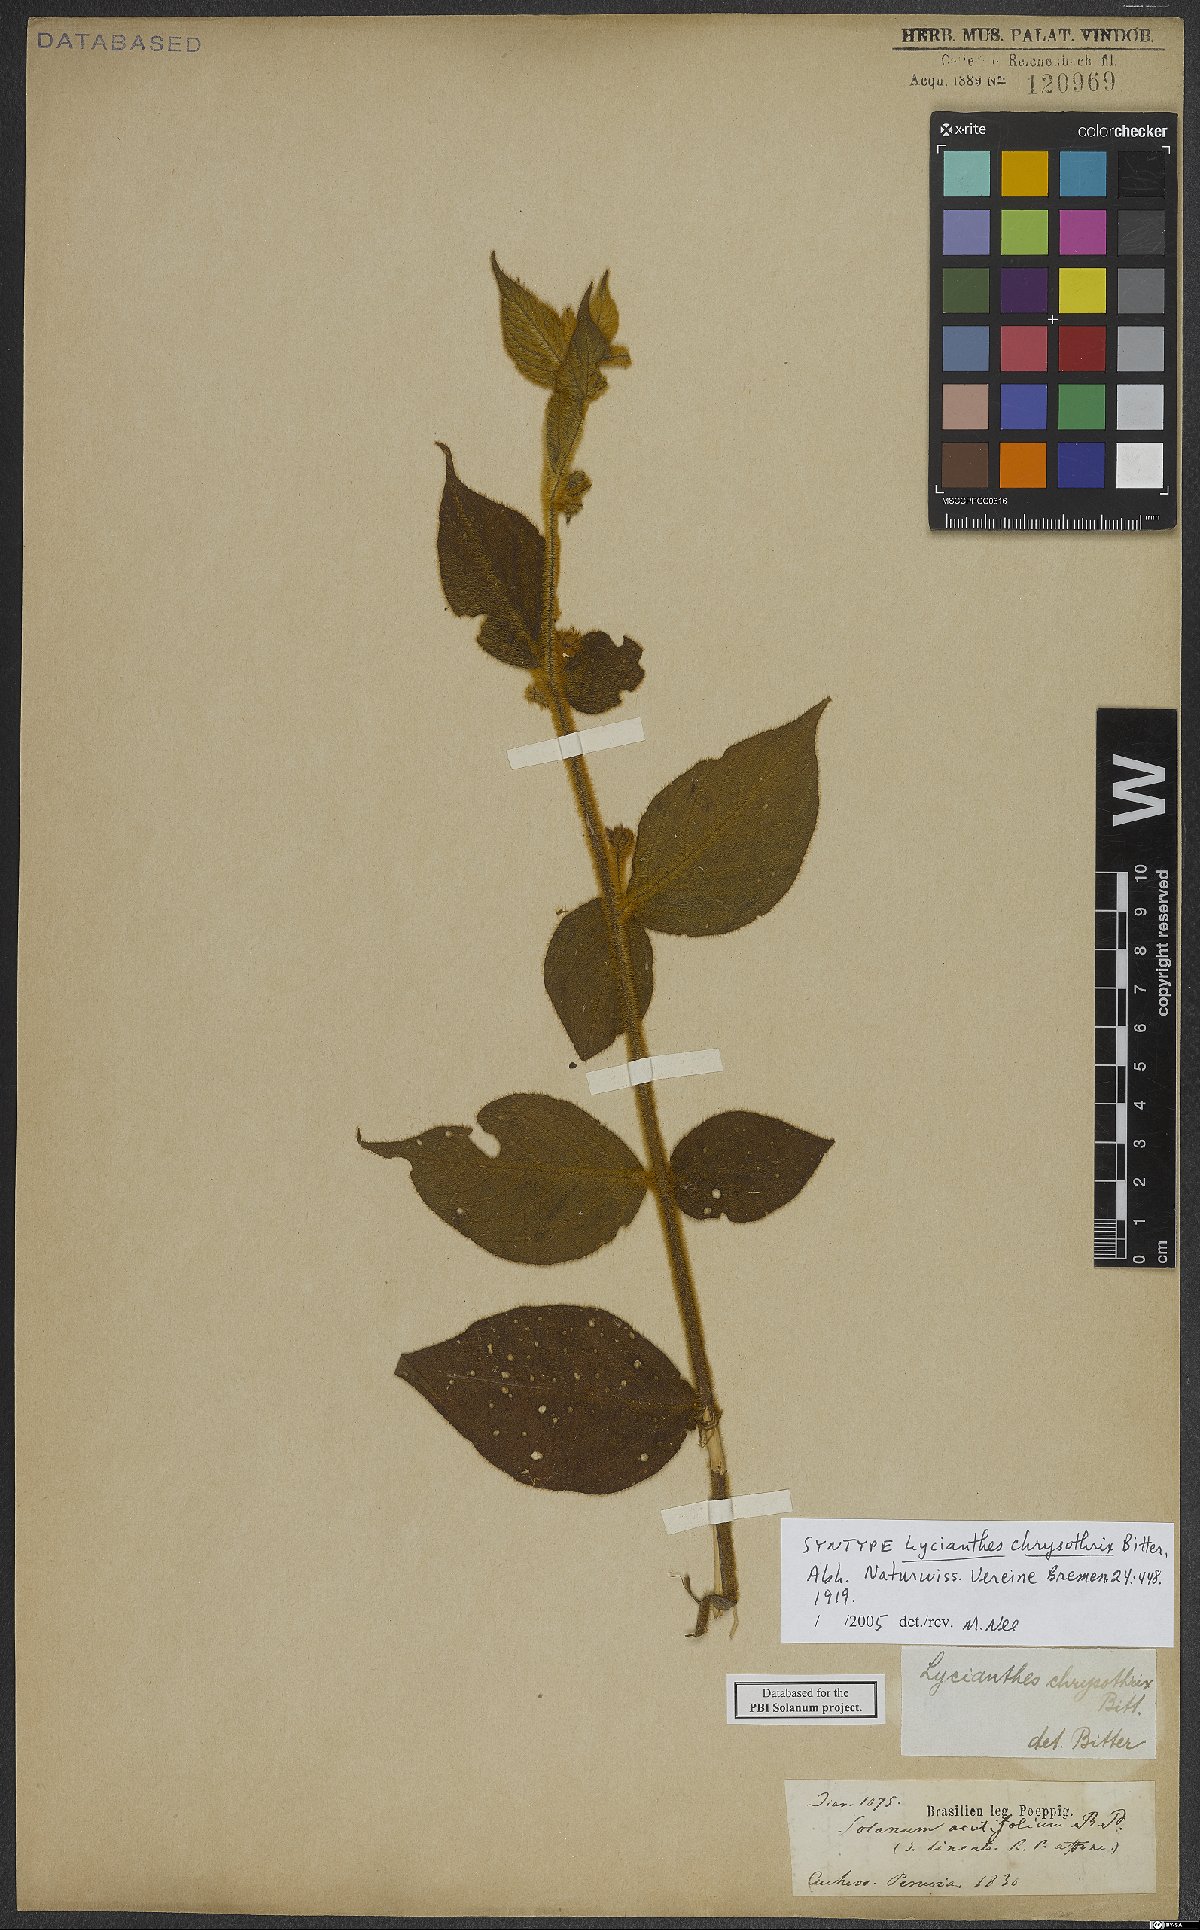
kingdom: Plantae
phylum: Tracheophyta
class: Magnoliopsida
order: Solanales
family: Solanaceae
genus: Lycianthes
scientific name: Lycianthes chrysothrix
